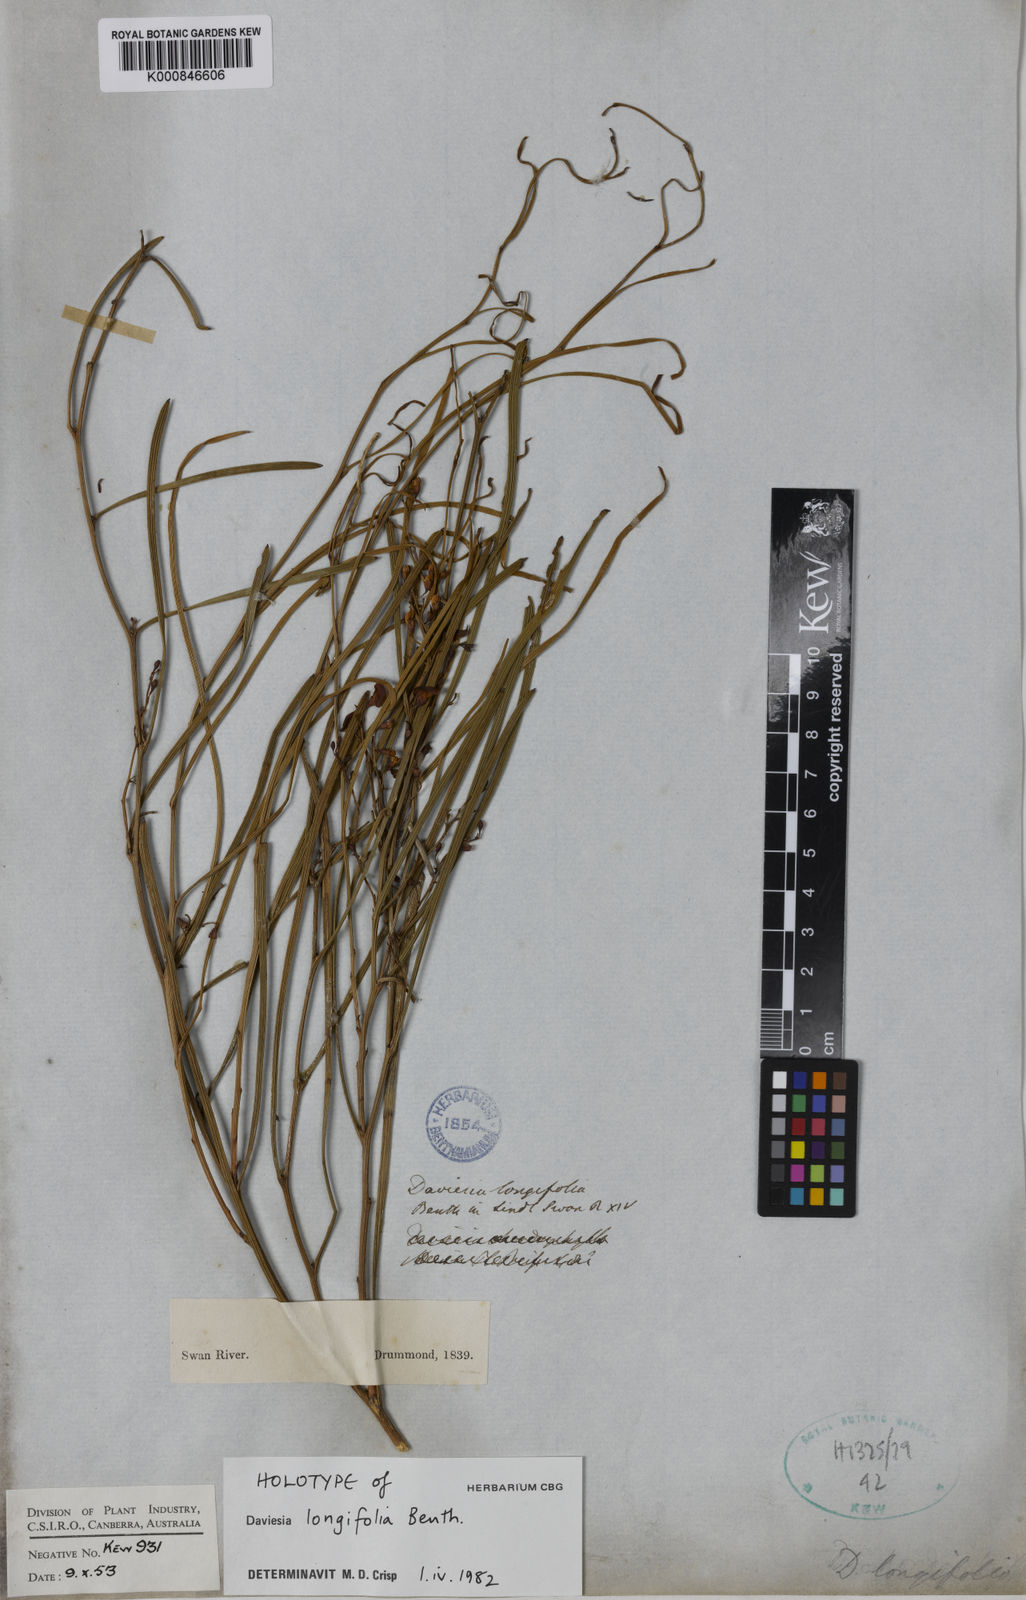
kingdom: Plantae
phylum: Tracheophyta
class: Magnoliopsida
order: Fabales
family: Fabaceae
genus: Daviesia
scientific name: Daviesia longifolia
